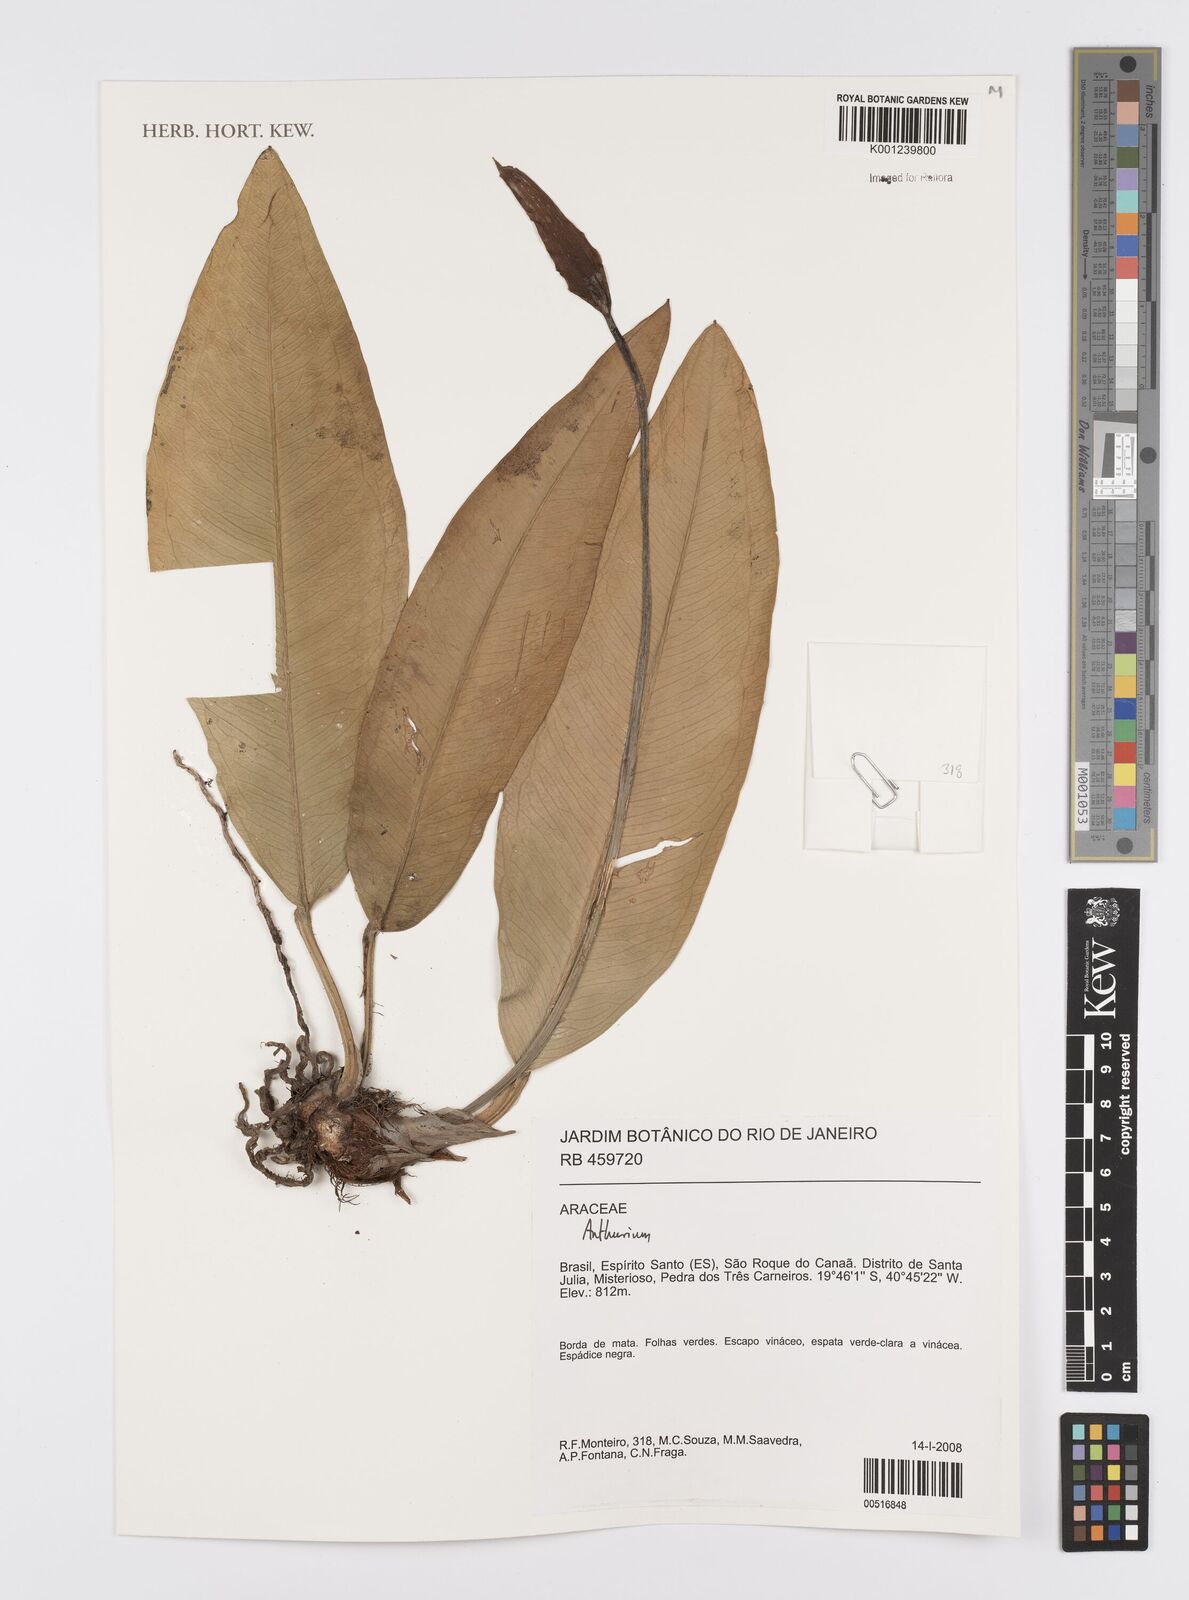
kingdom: Plantae
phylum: Tracheophyta
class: Liliopsida
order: Alismatales
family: Araceae
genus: Anthurium
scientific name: Anthurium
